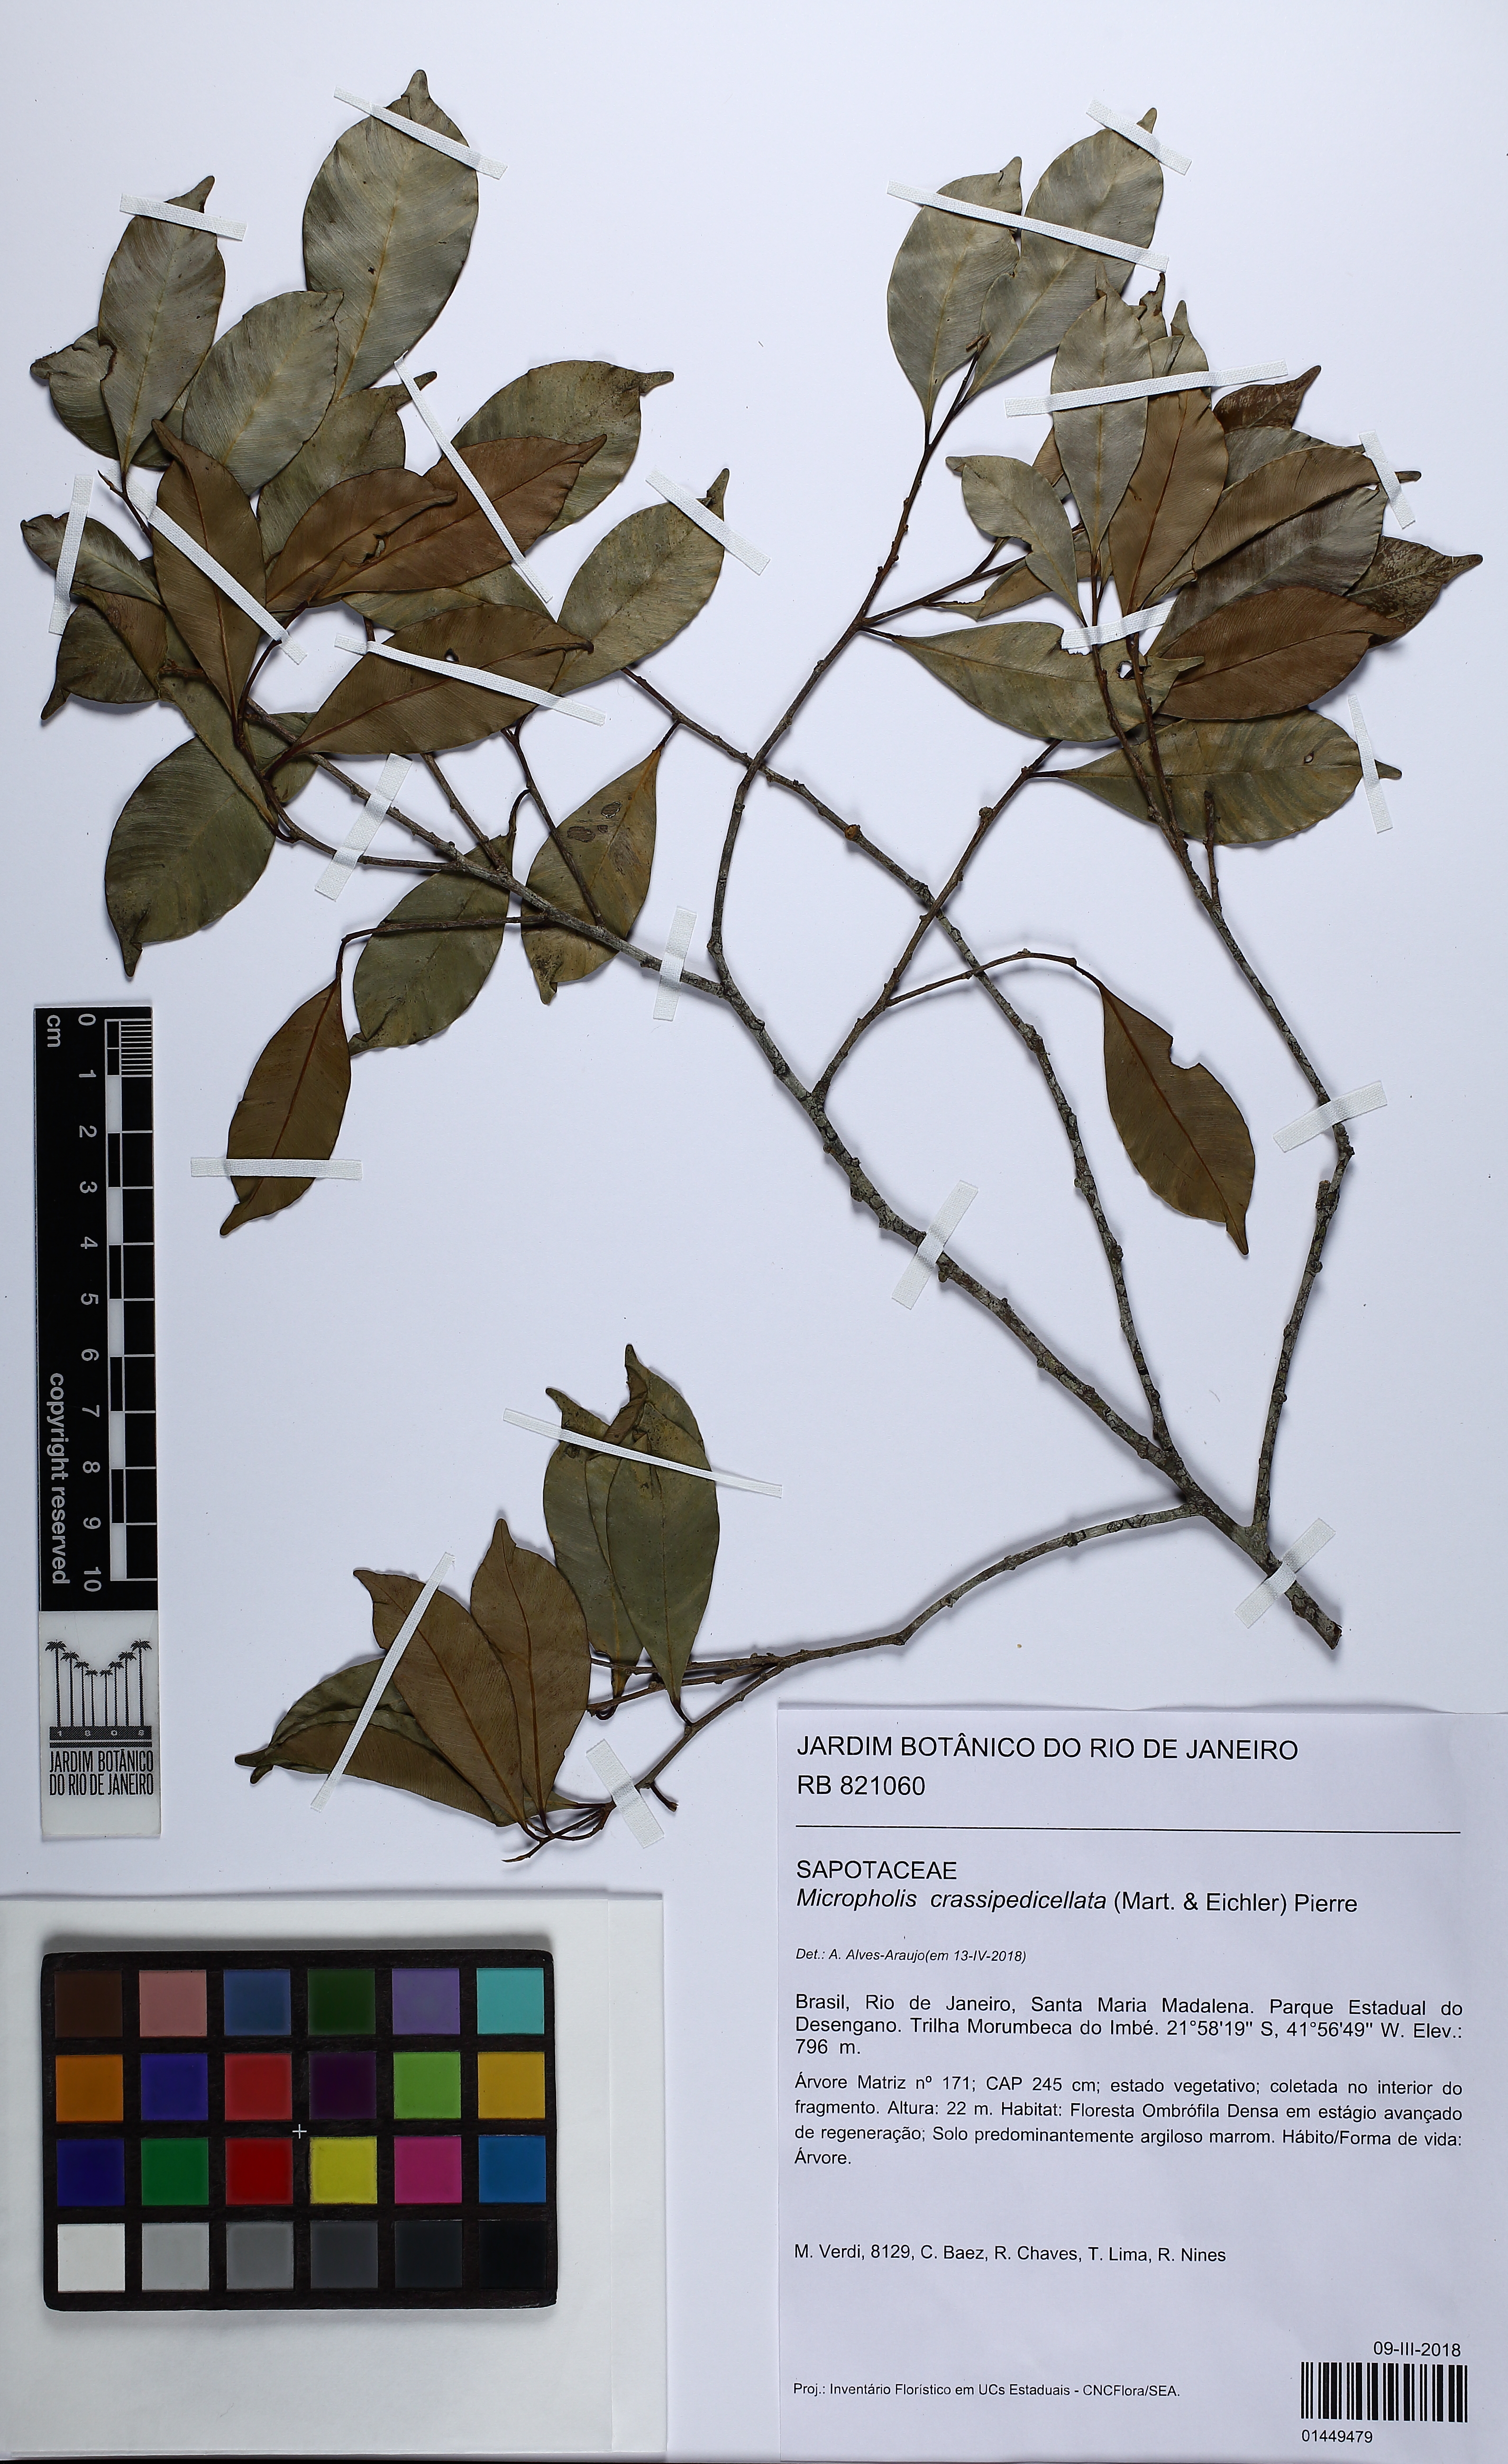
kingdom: Plantae
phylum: Tracheophyta
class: Magnoliopsida
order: Ericales
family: Sapotaceae
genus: Micropholis
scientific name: Micropholis crassipedicellata
